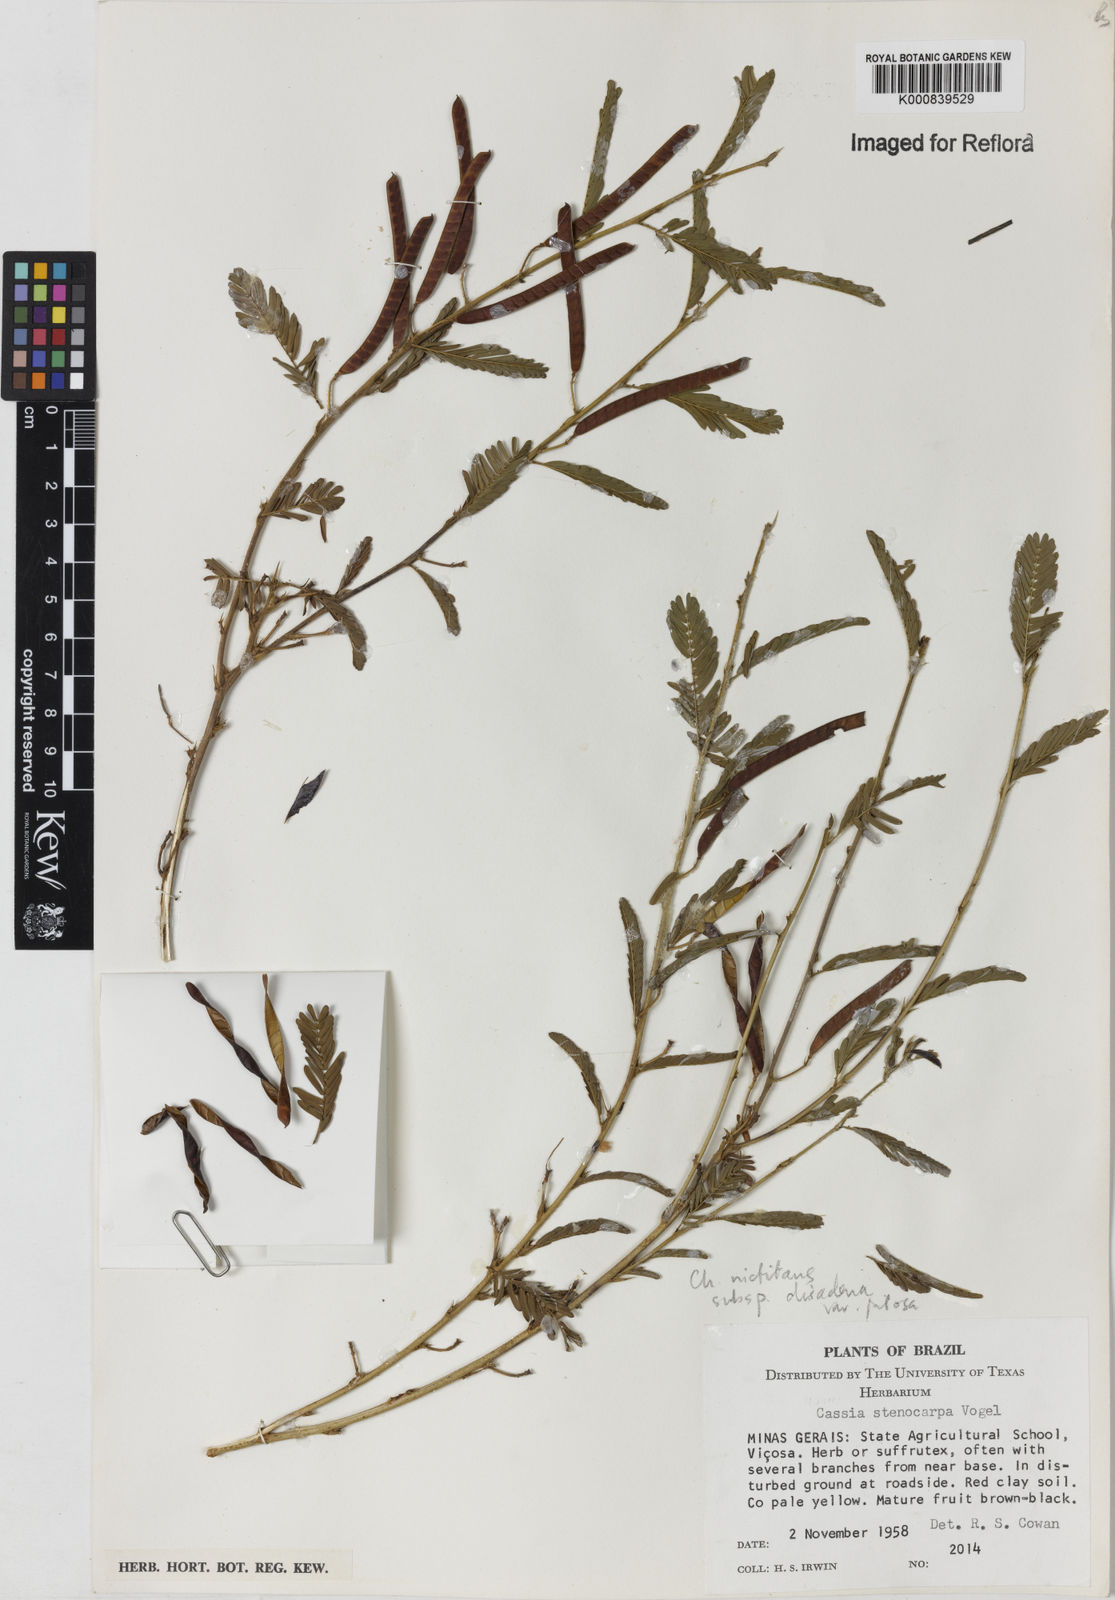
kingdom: Plantae
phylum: Tracheophyta
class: Magnoliopsida
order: Fabales
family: Fabaceae
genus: Chamaecrista
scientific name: Chamaecrista nictitans
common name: Sensitive cassia
